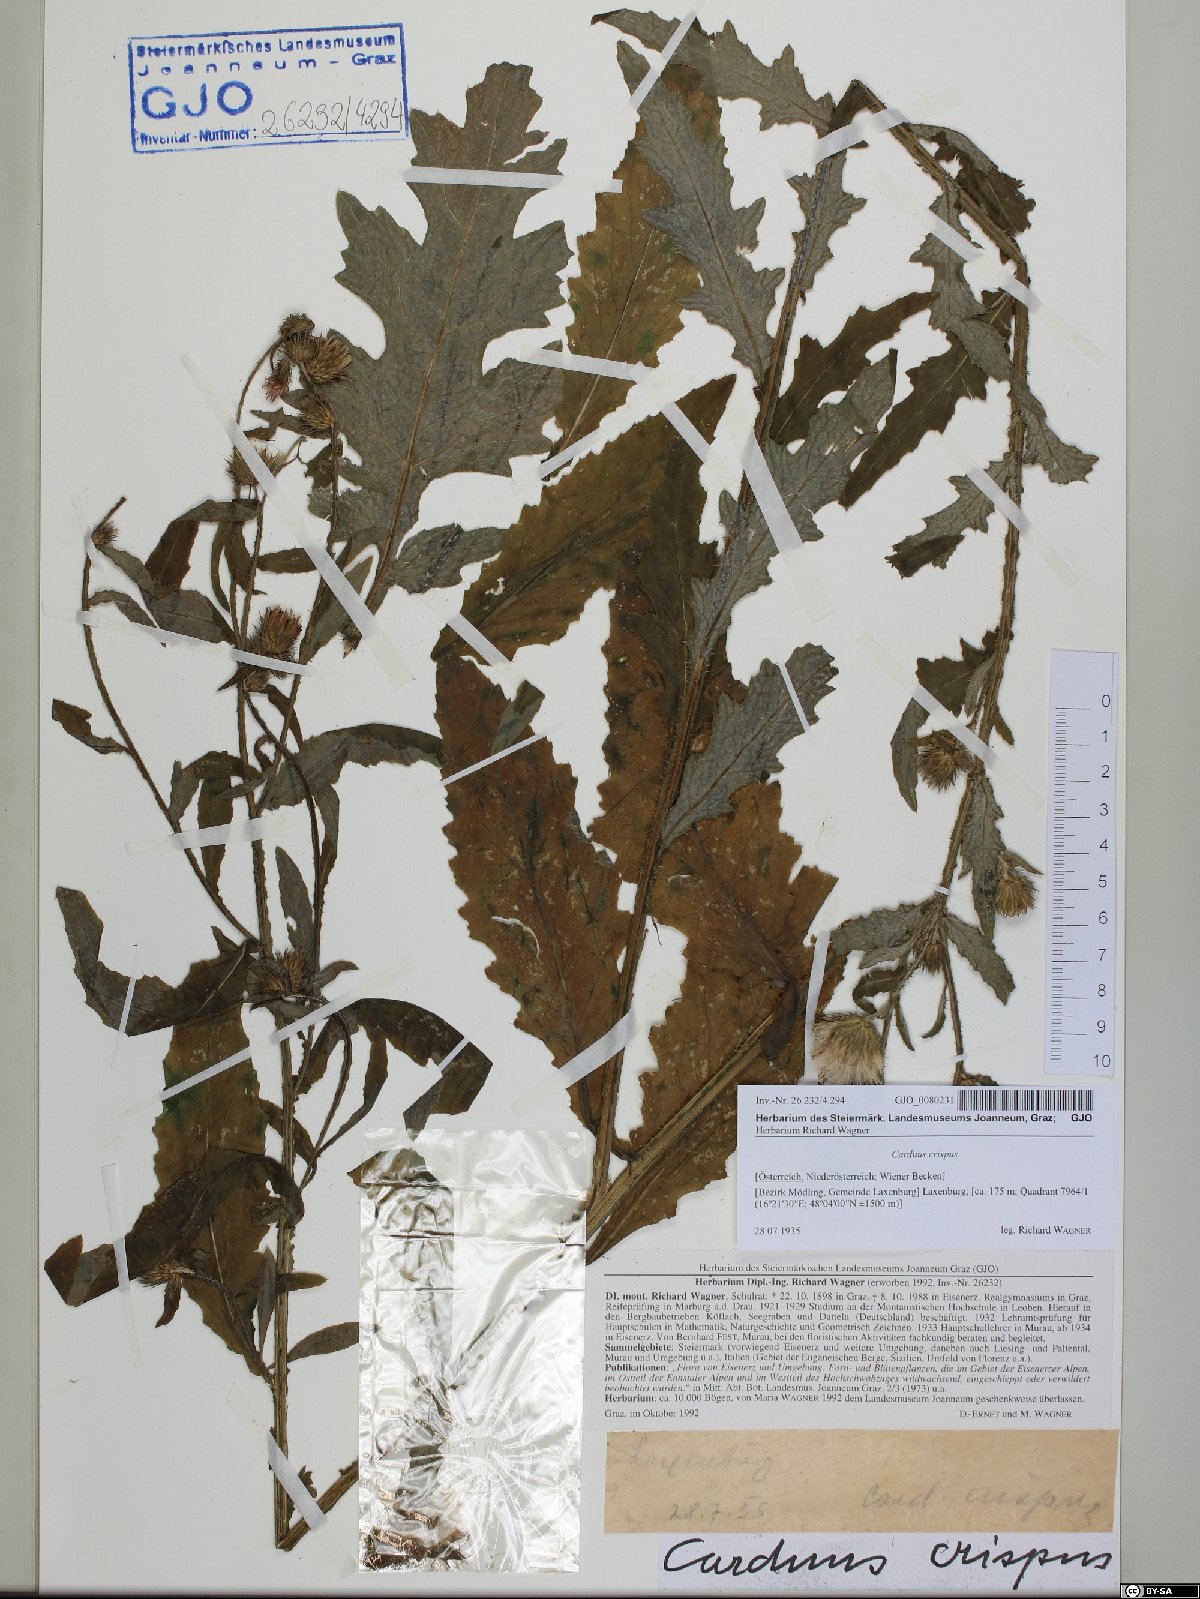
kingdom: Plantae
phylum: Tracheophyta
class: Magnoliopsida
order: Asterales
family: Asteraceae
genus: Carduus
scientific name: Carduus crispus
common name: Welted thistle
